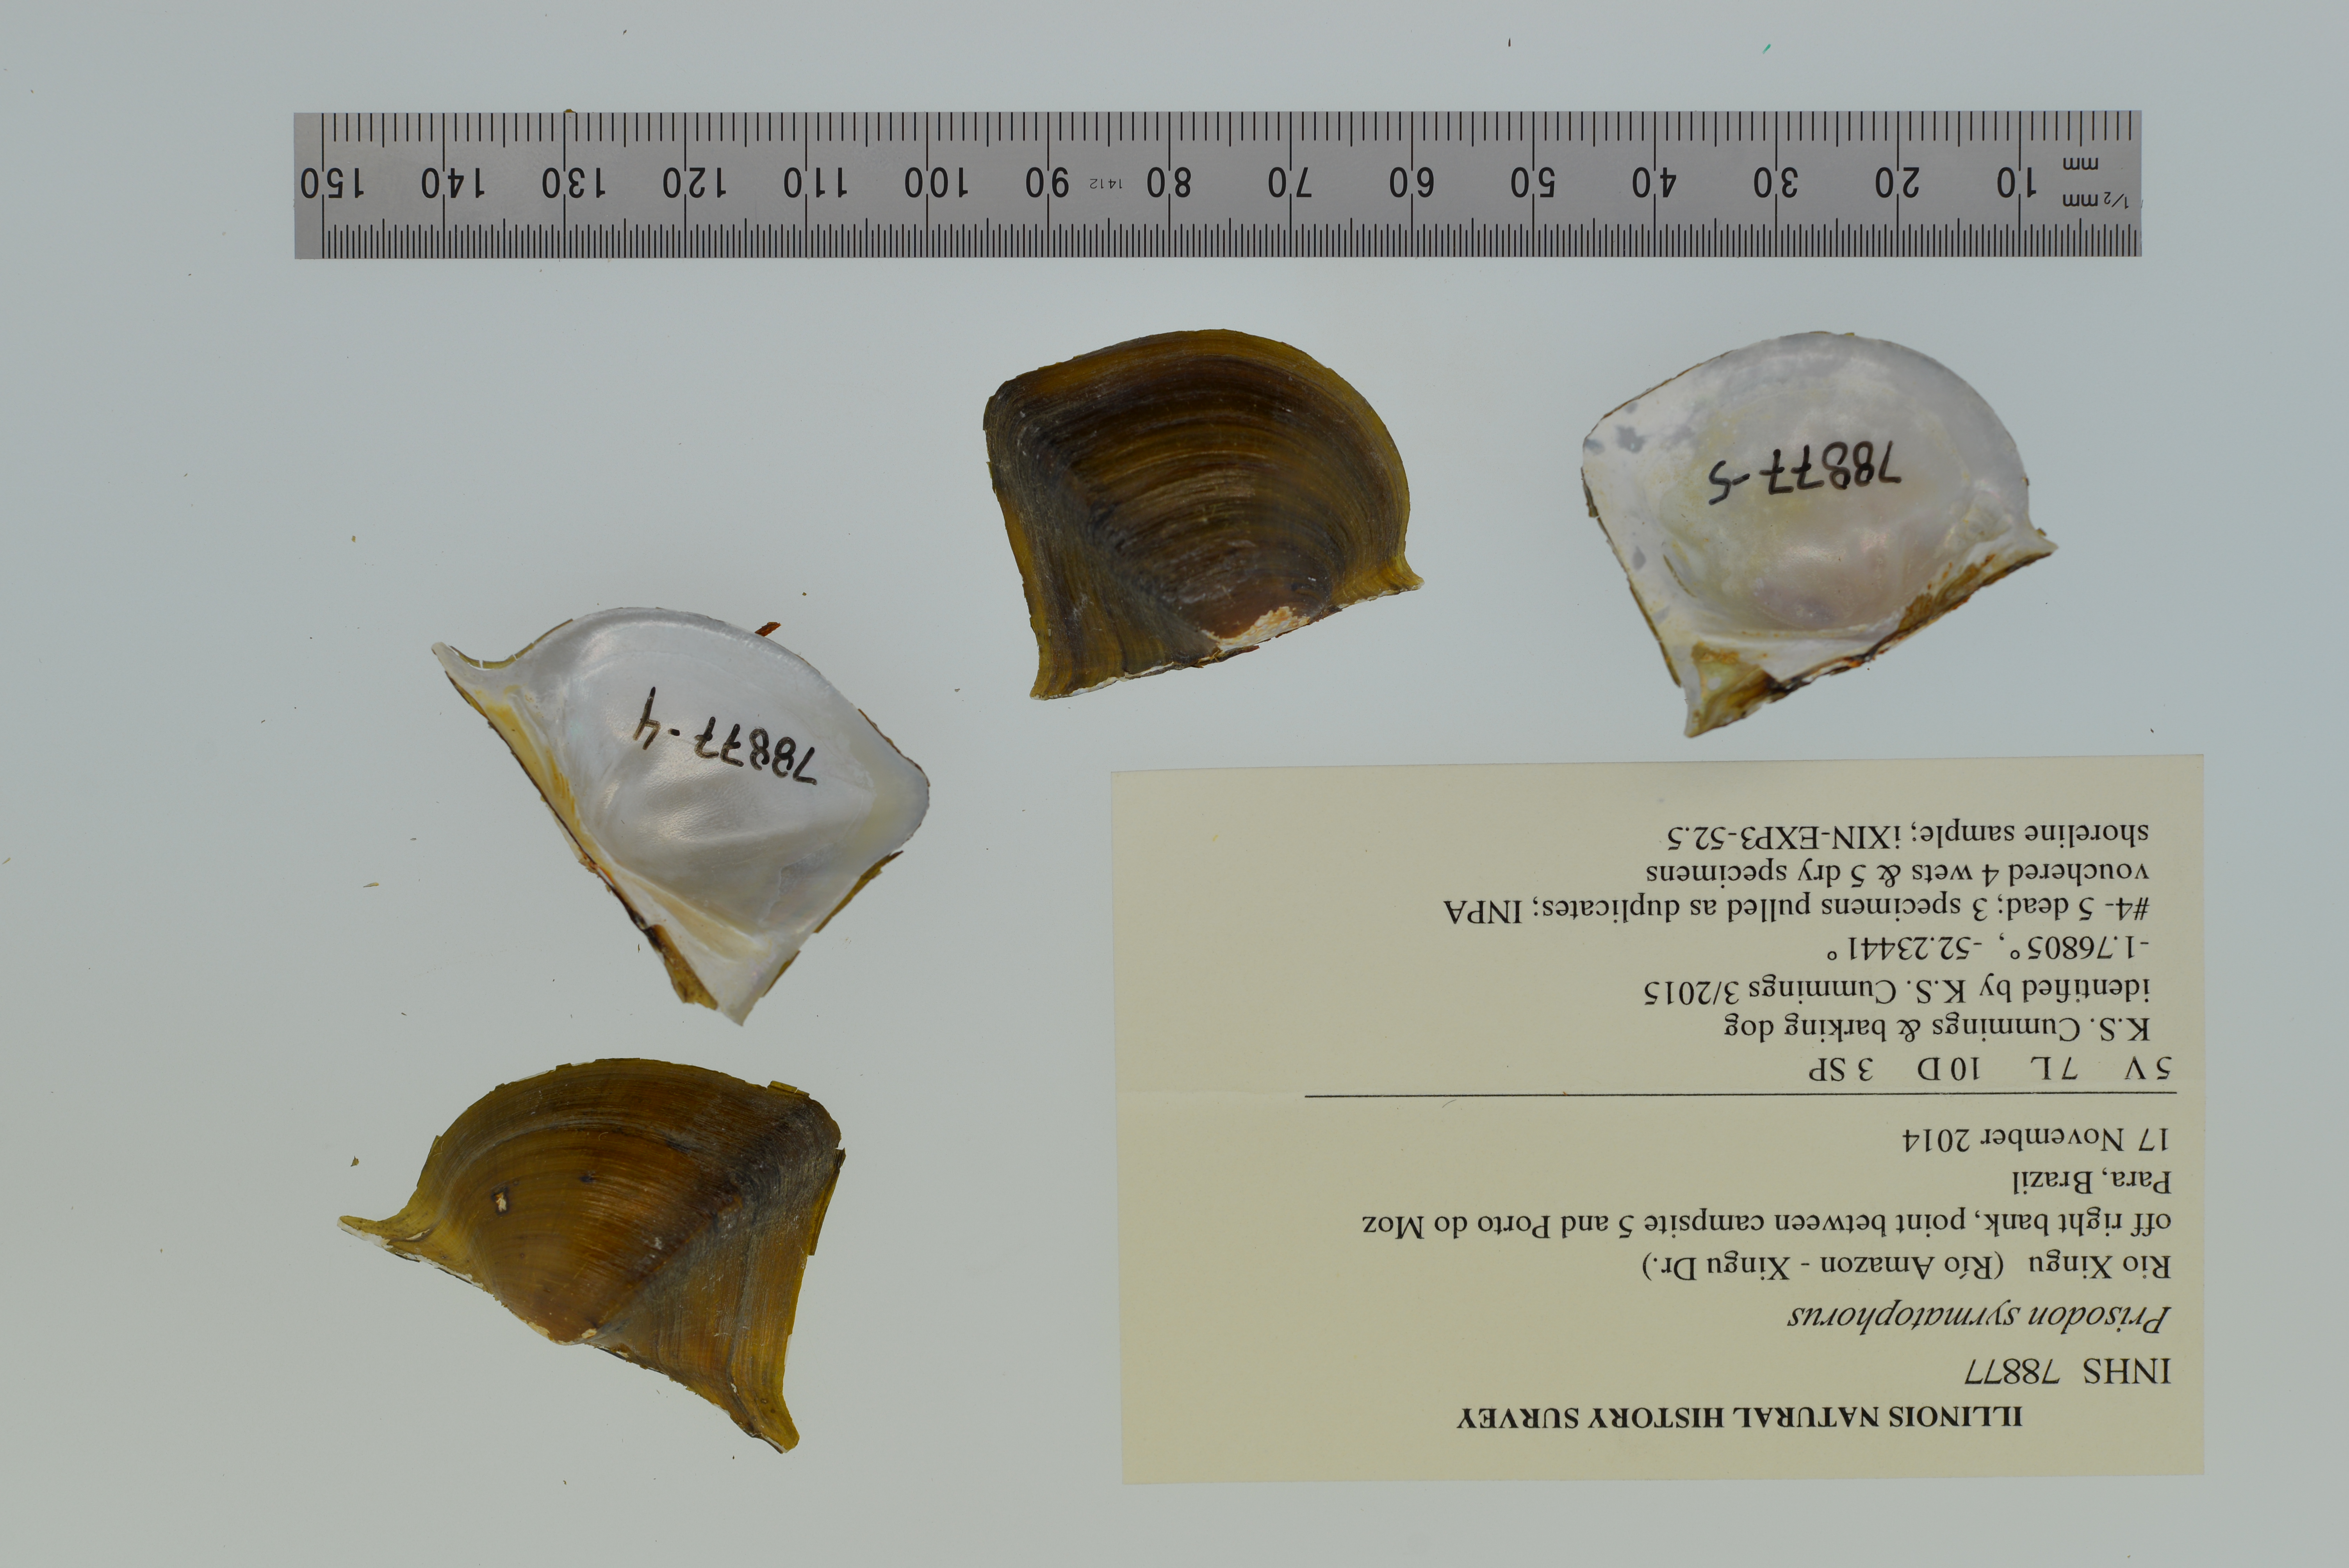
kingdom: Animalia
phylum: Mollusca
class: Bivalvia
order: Unionida
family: Hyriidae
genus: Prisodon
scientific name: Prisodon syrmatophorus
